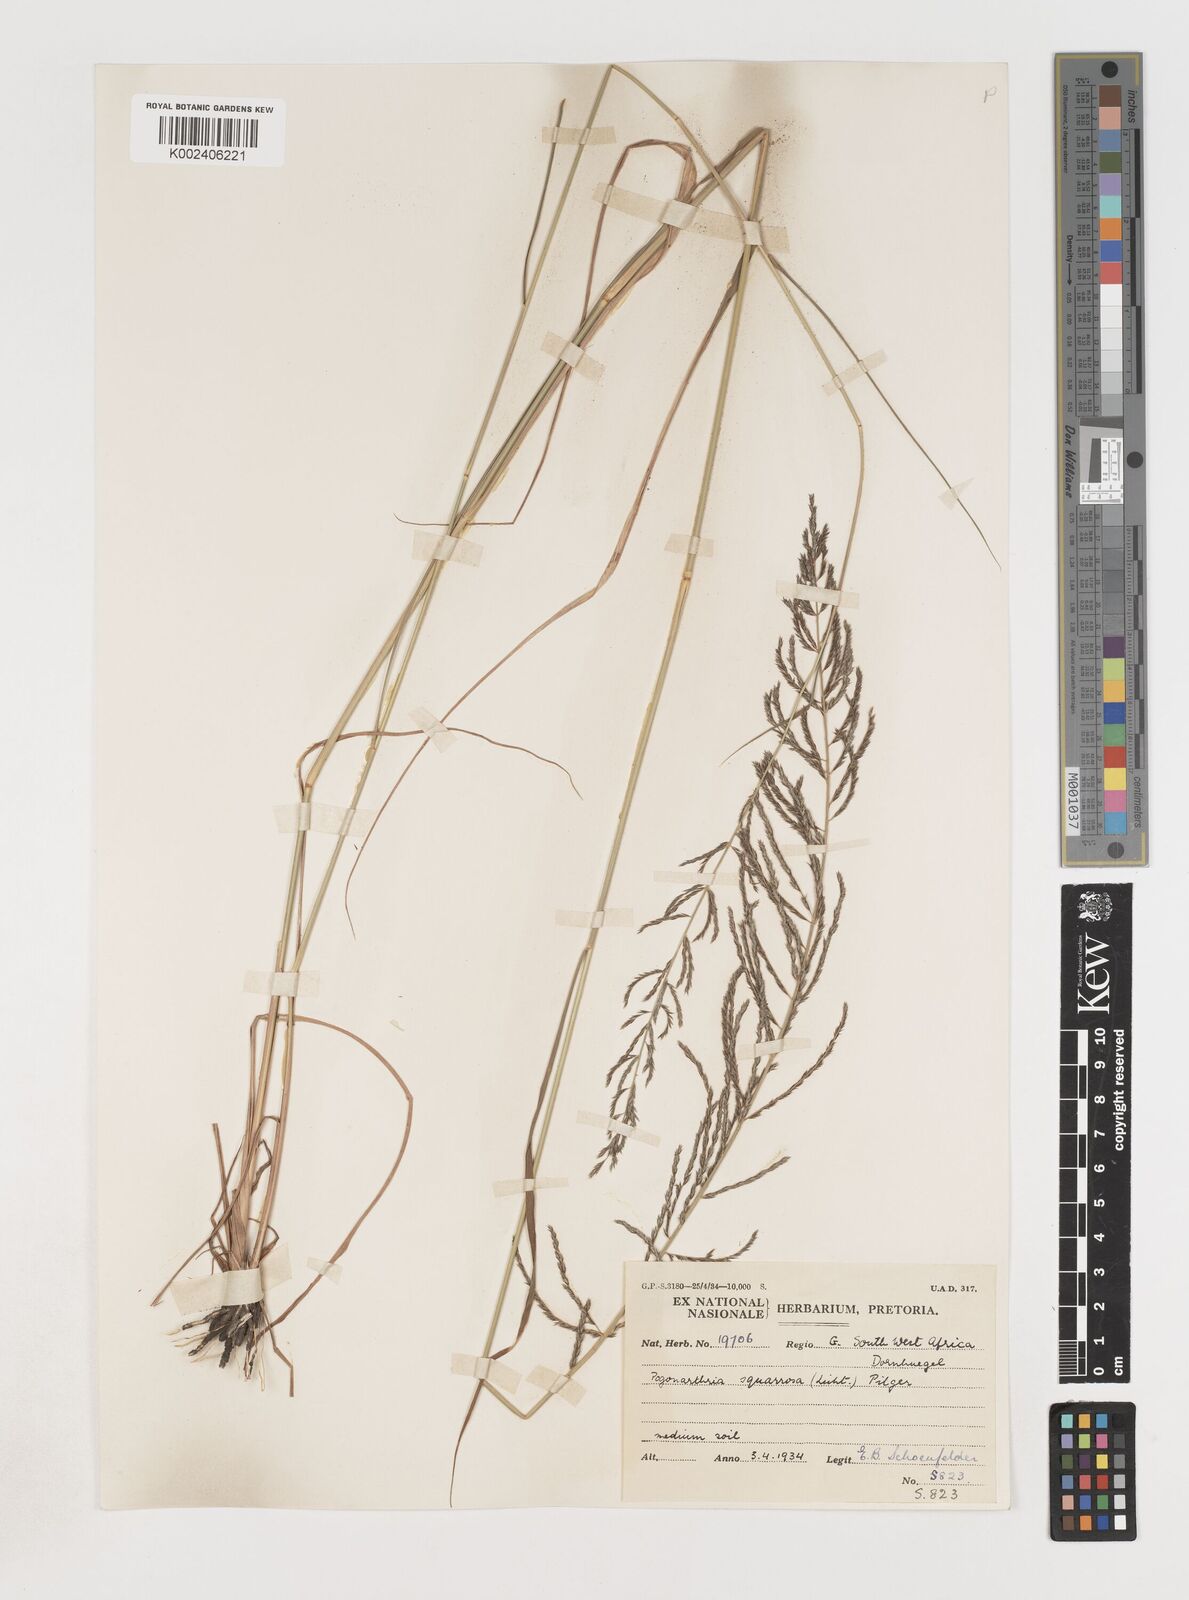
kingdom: Plantae
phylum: Tracheophyta
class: Liliopsida
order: Poales
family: Poaceae
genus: Pogonarthria
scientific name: Pogonarthria squarrosa
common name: Grass
